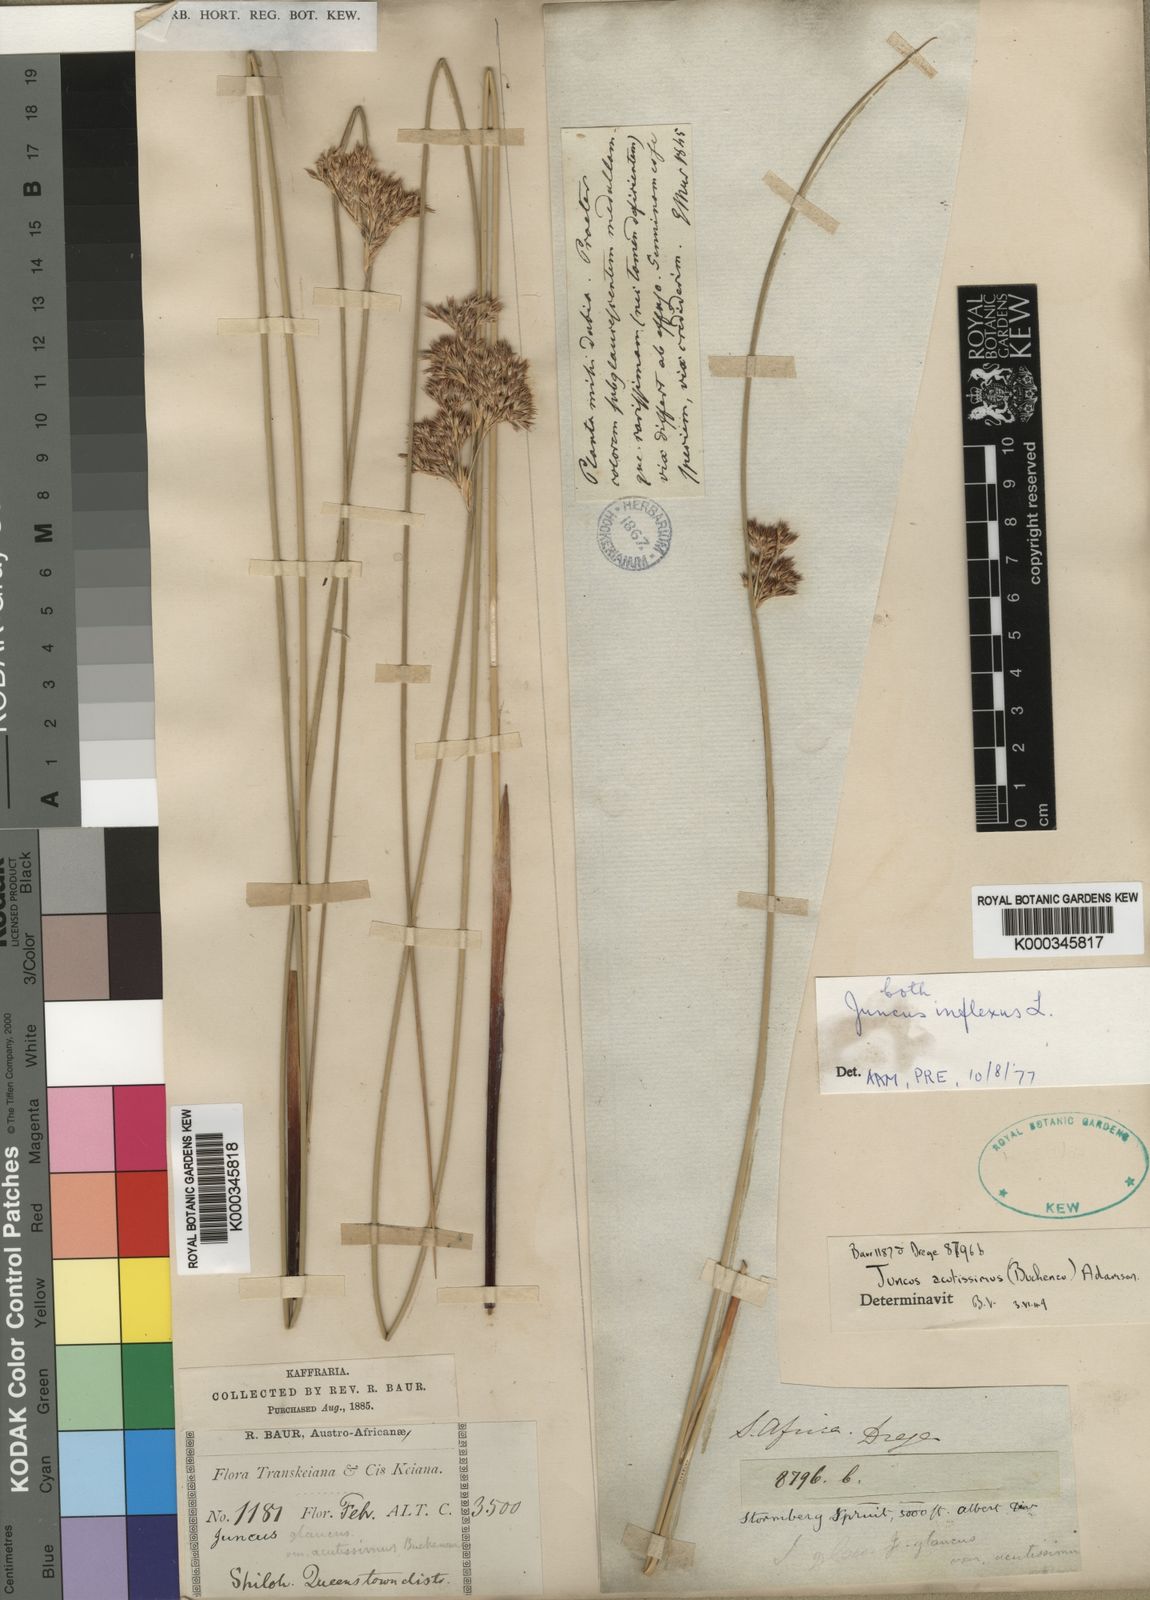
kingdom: Plantae
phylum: Tracheophyta
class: Liliopsida
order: Poales
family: Juncaceae
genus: Juncus
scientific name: Juncus inflexus
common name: Hard rush
